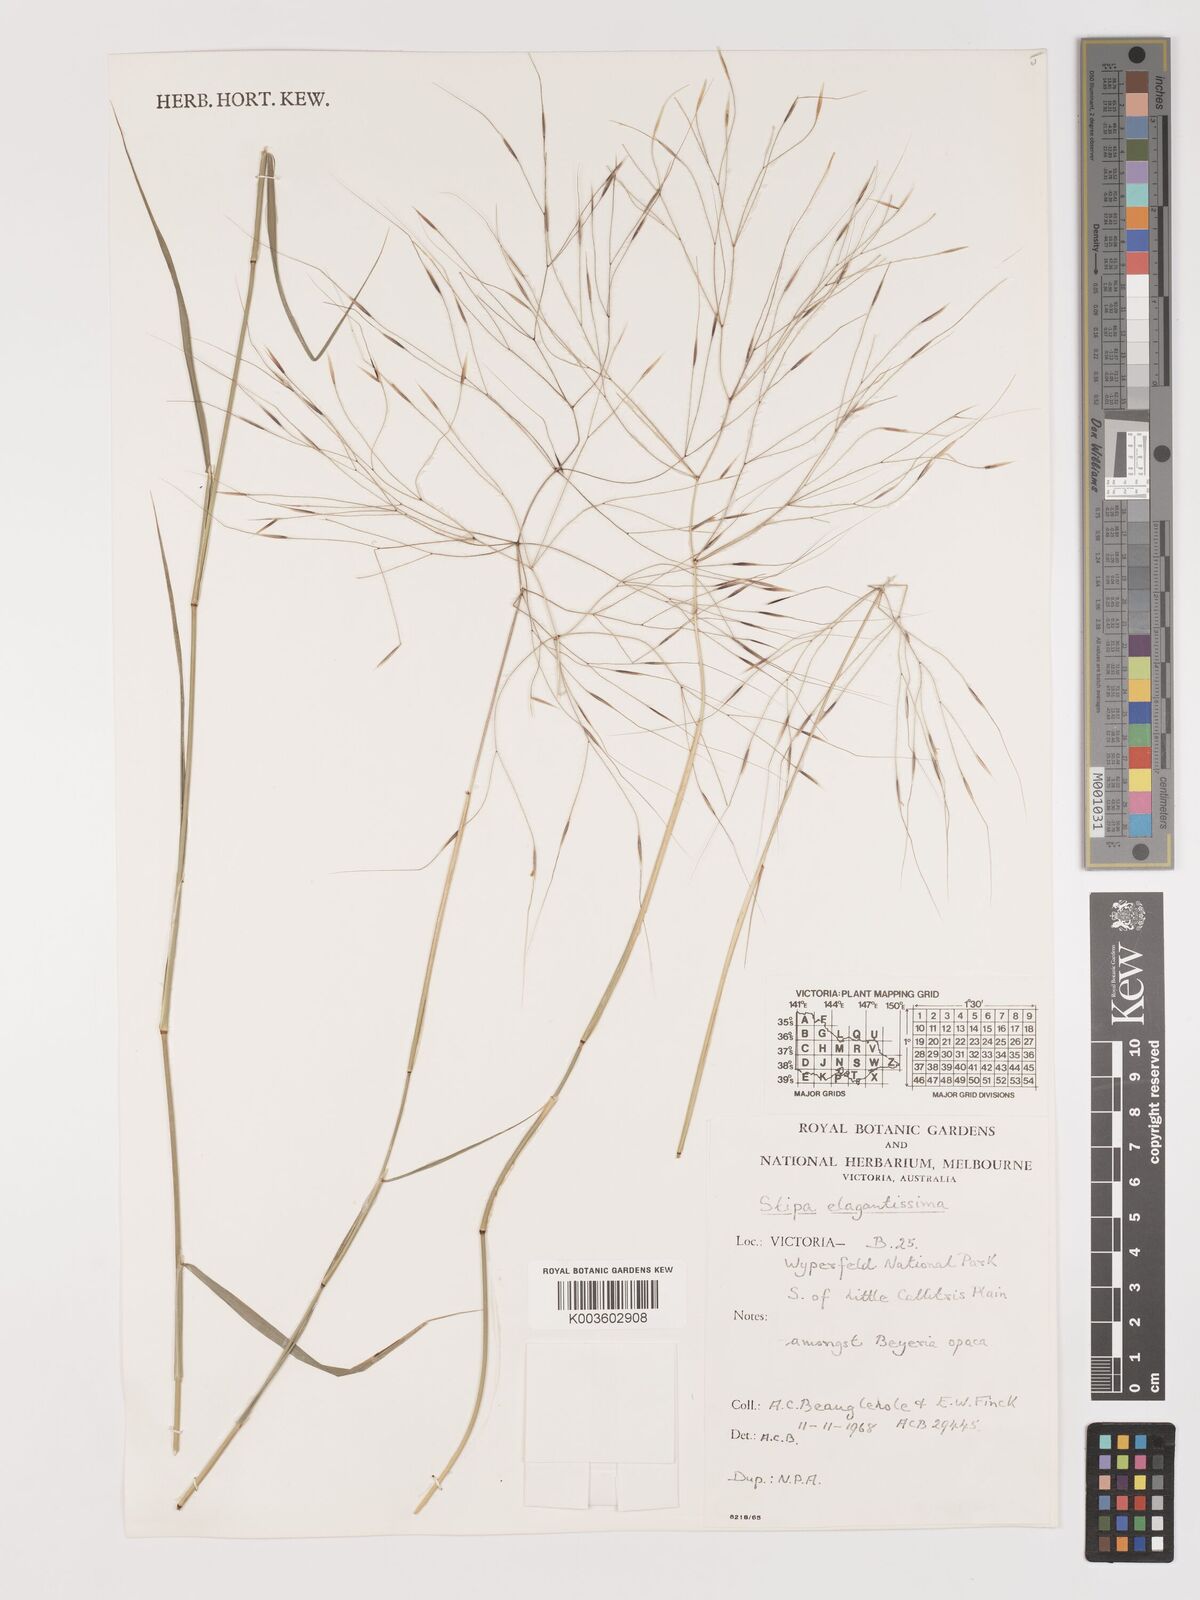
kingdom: Plantae
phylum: Tracheophyta
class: Liliopsida
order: Poales
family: Poaceae
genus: Austrostipa
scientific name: Austrostipa elegantissima
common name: Feather spear grass
